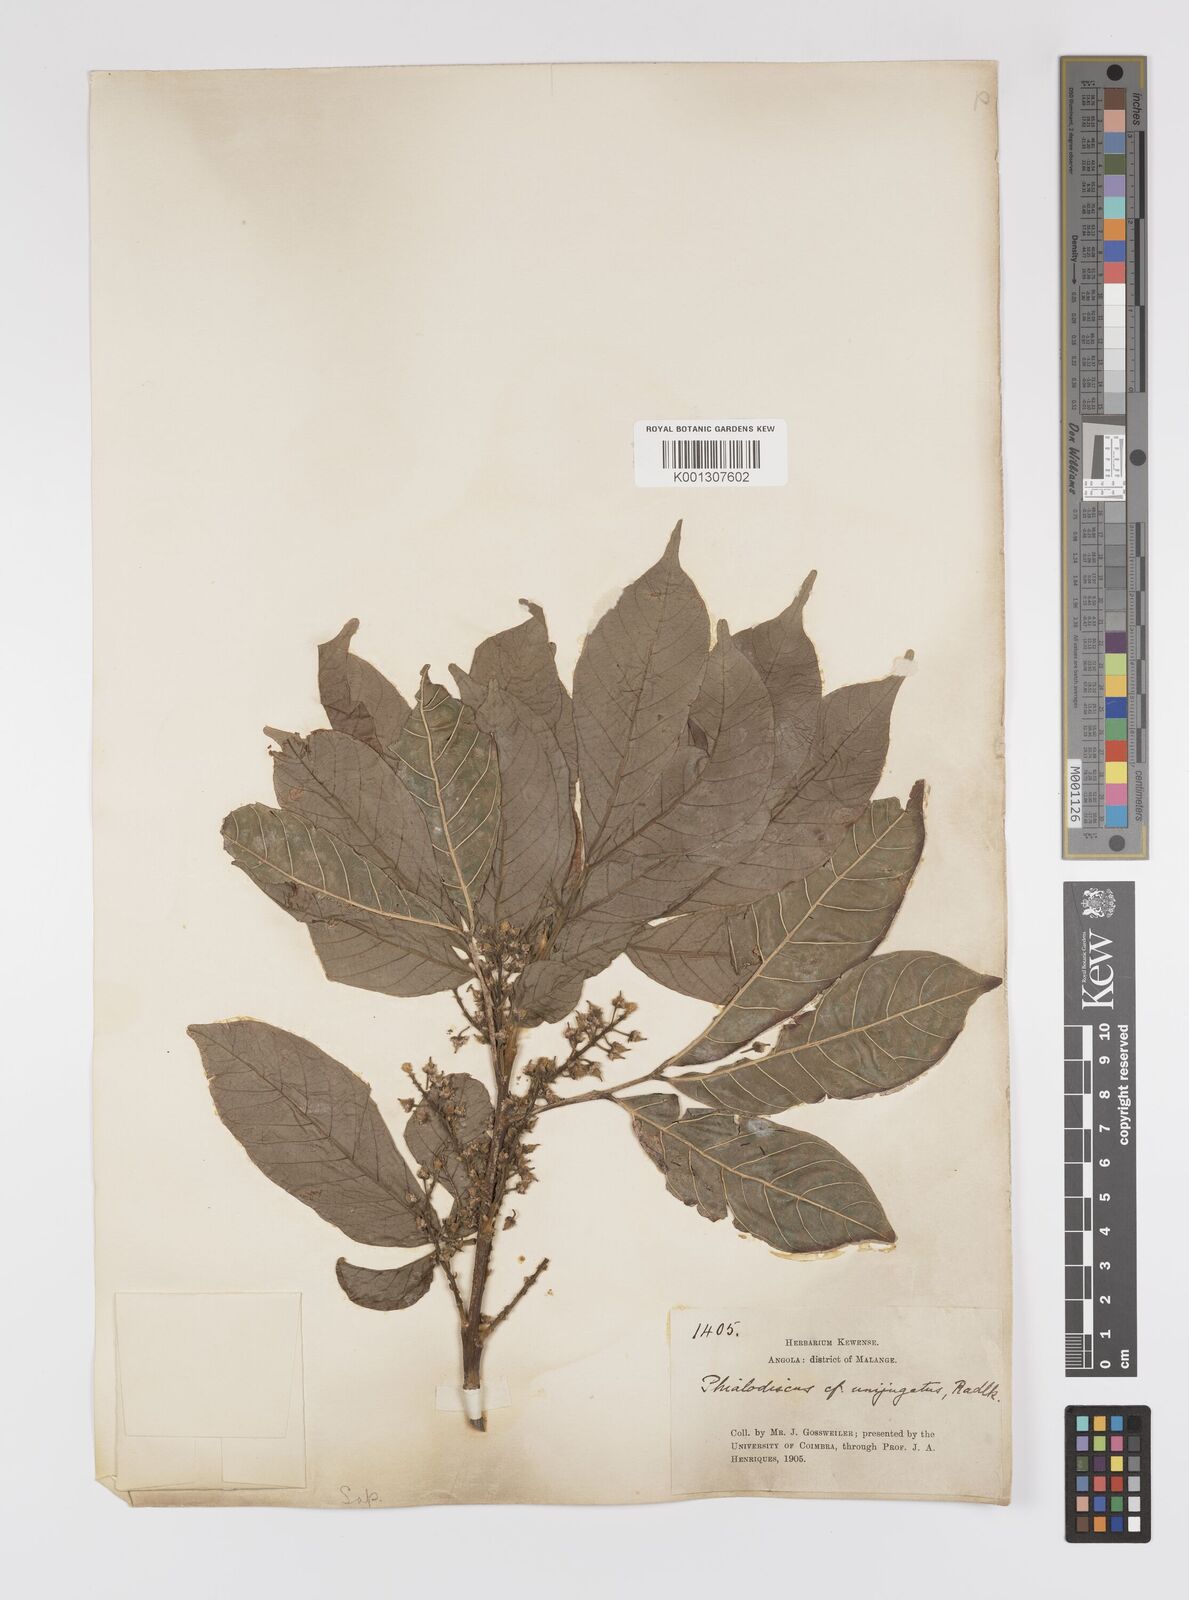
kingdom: Plantae
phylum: Tracheophyta
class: Magnoliopsida
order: Sapindales
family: Sapindaceae
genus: Blighia
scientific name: Blighia unijugata
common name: Triangle tops
